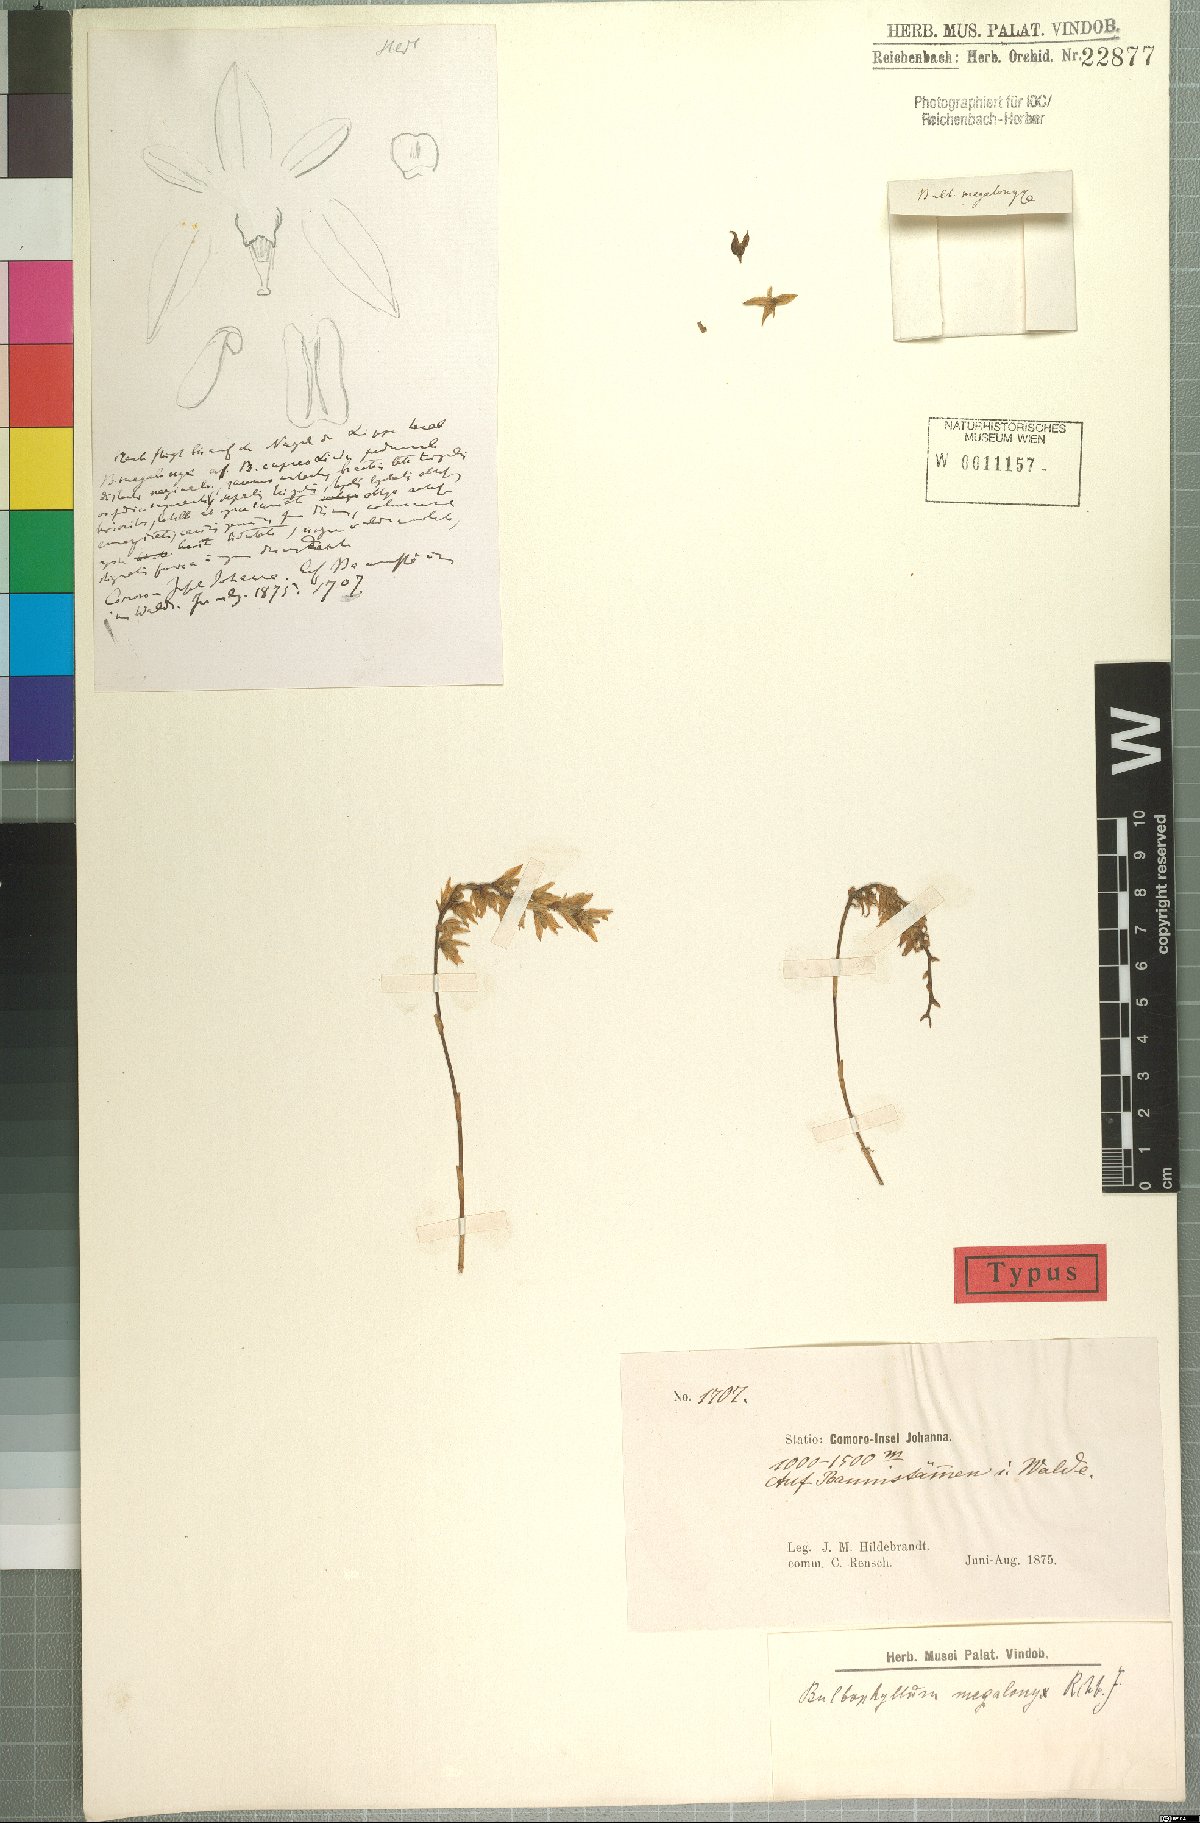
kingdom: Plantae
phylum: Tracheophyta
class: Liliopsida
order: Asparagales
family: Orchidaceae
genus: Bulbophyllum
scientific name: Bulbophyllum megalonyx
